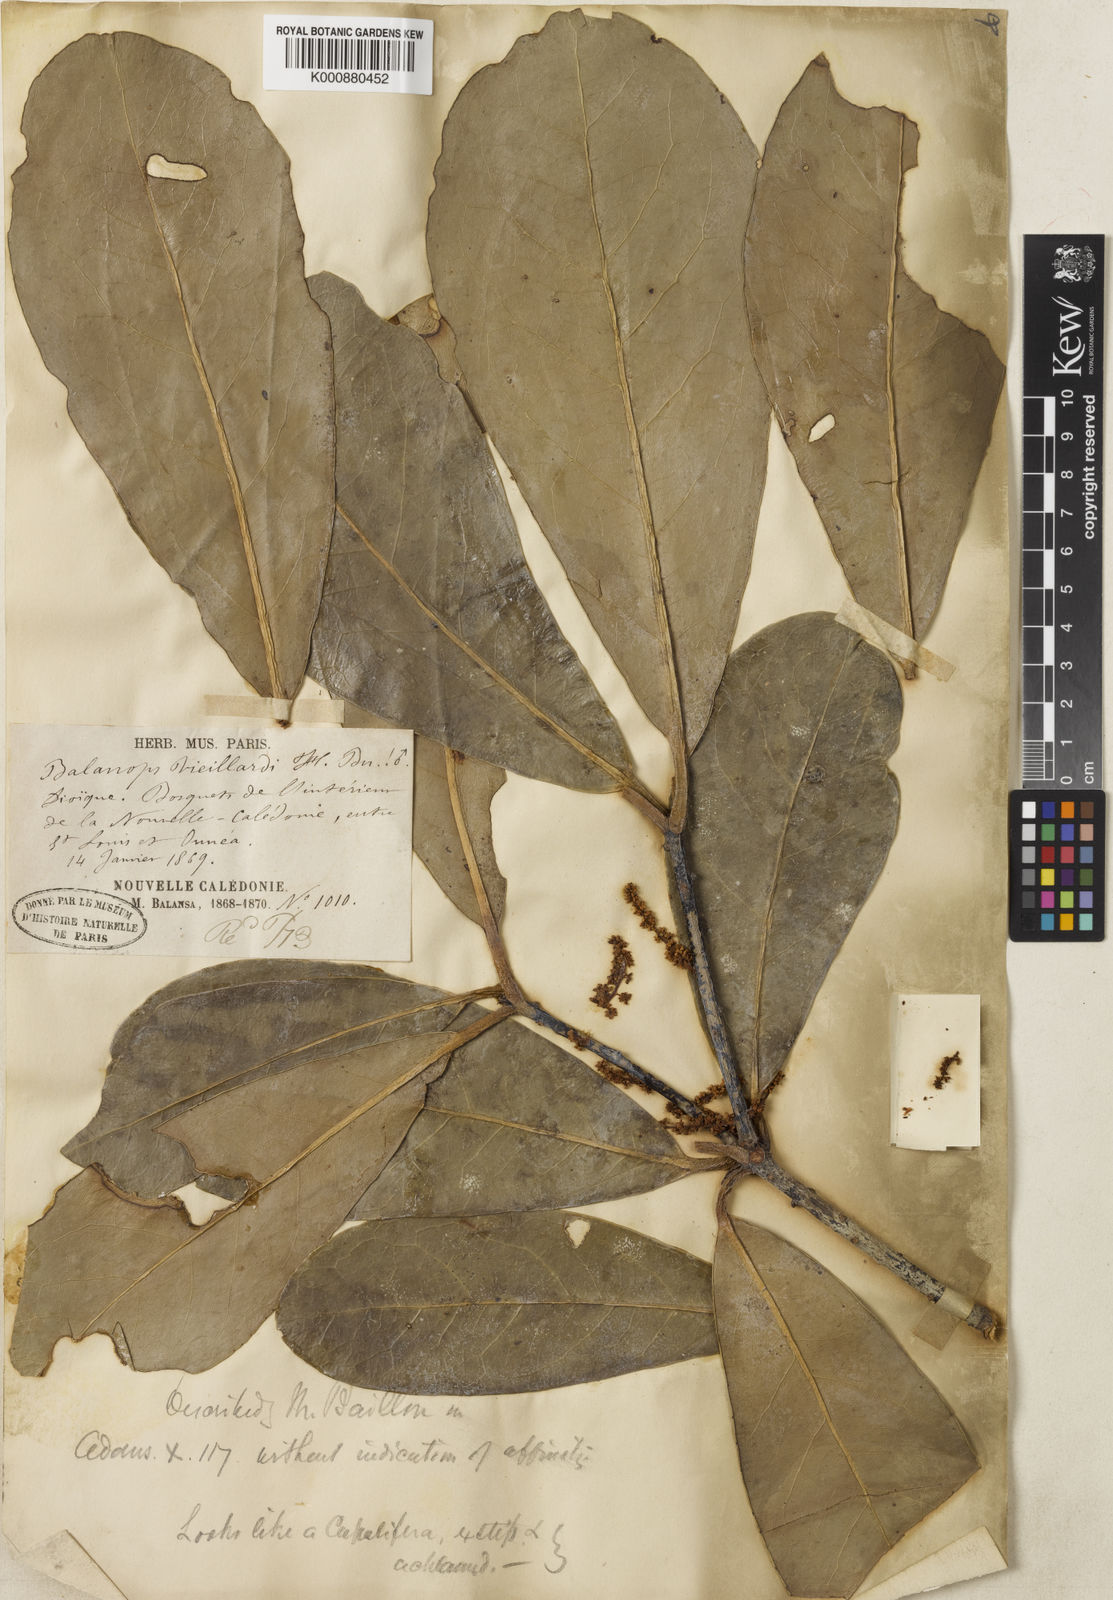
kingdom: Plantae
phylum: Tracheophyta
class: Magnoliopsida
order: Malpighiales
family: Balanopaceae
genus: Balanops
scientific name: Balanops vieillardii
